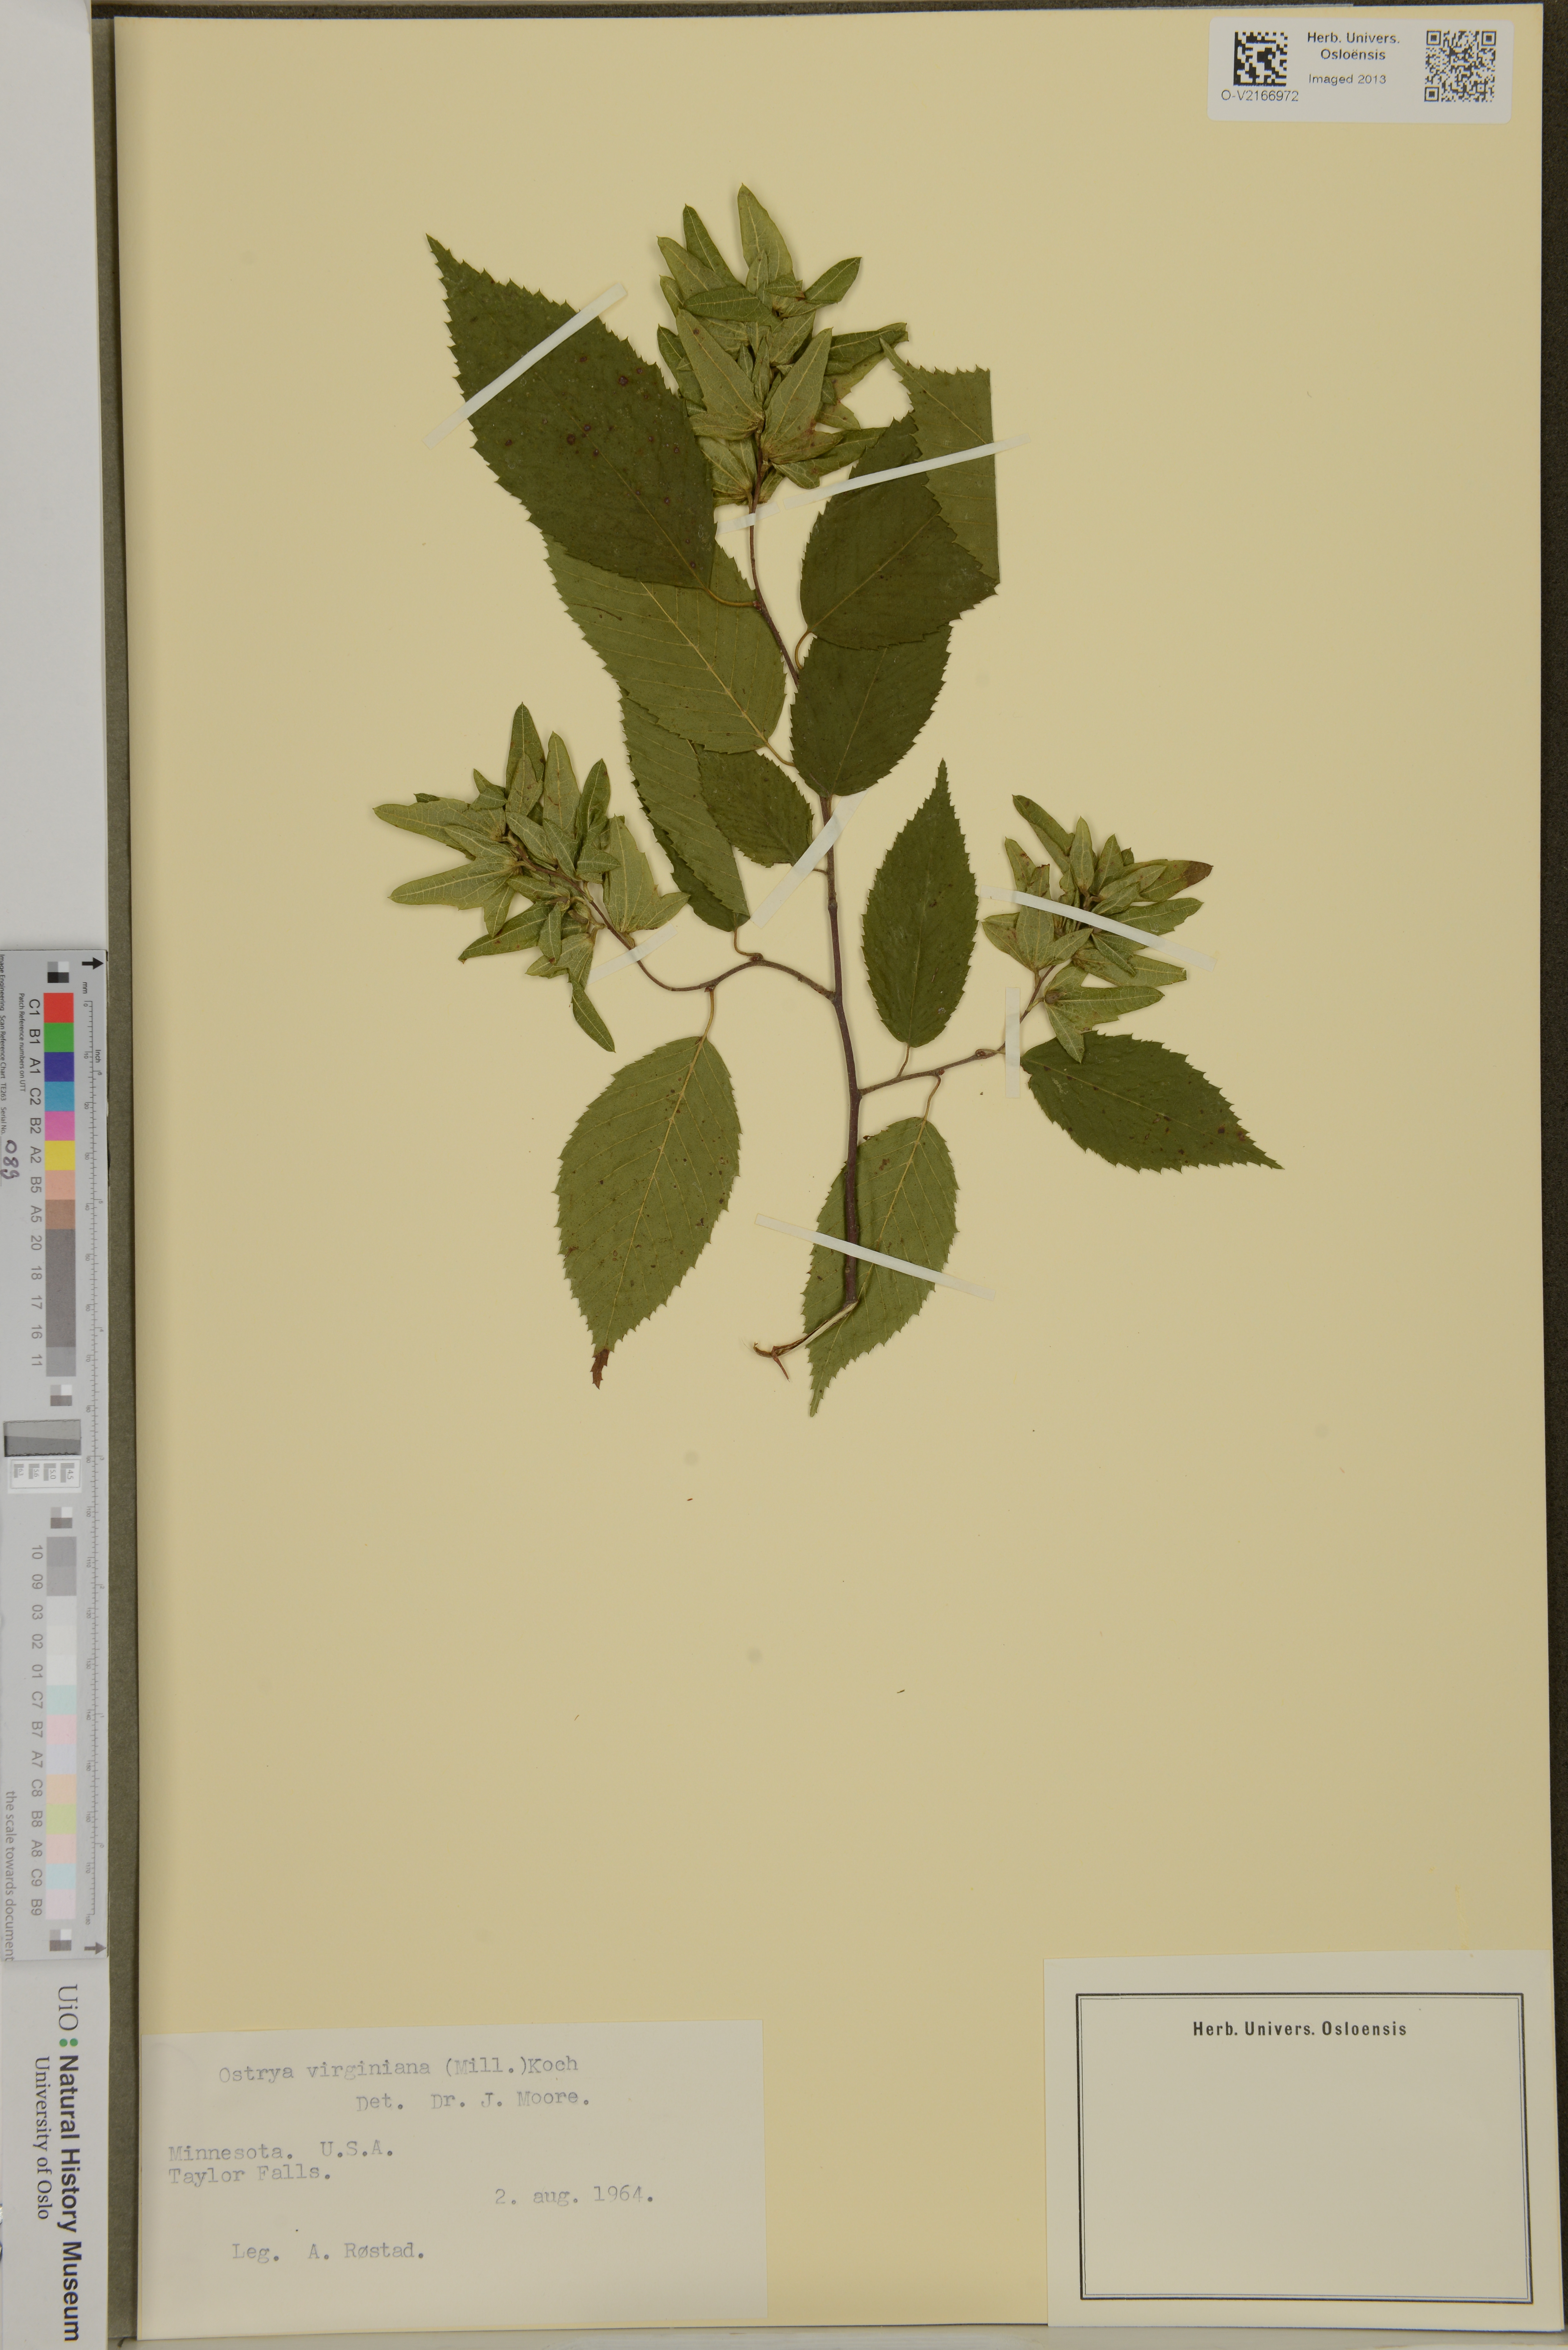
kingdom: Plantae
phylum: Tracheophyta
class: Magnoliopsida
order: Fagales
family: Betulaceae
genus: Ostrya
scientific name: Ostrya virginiana
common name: Ironwood
